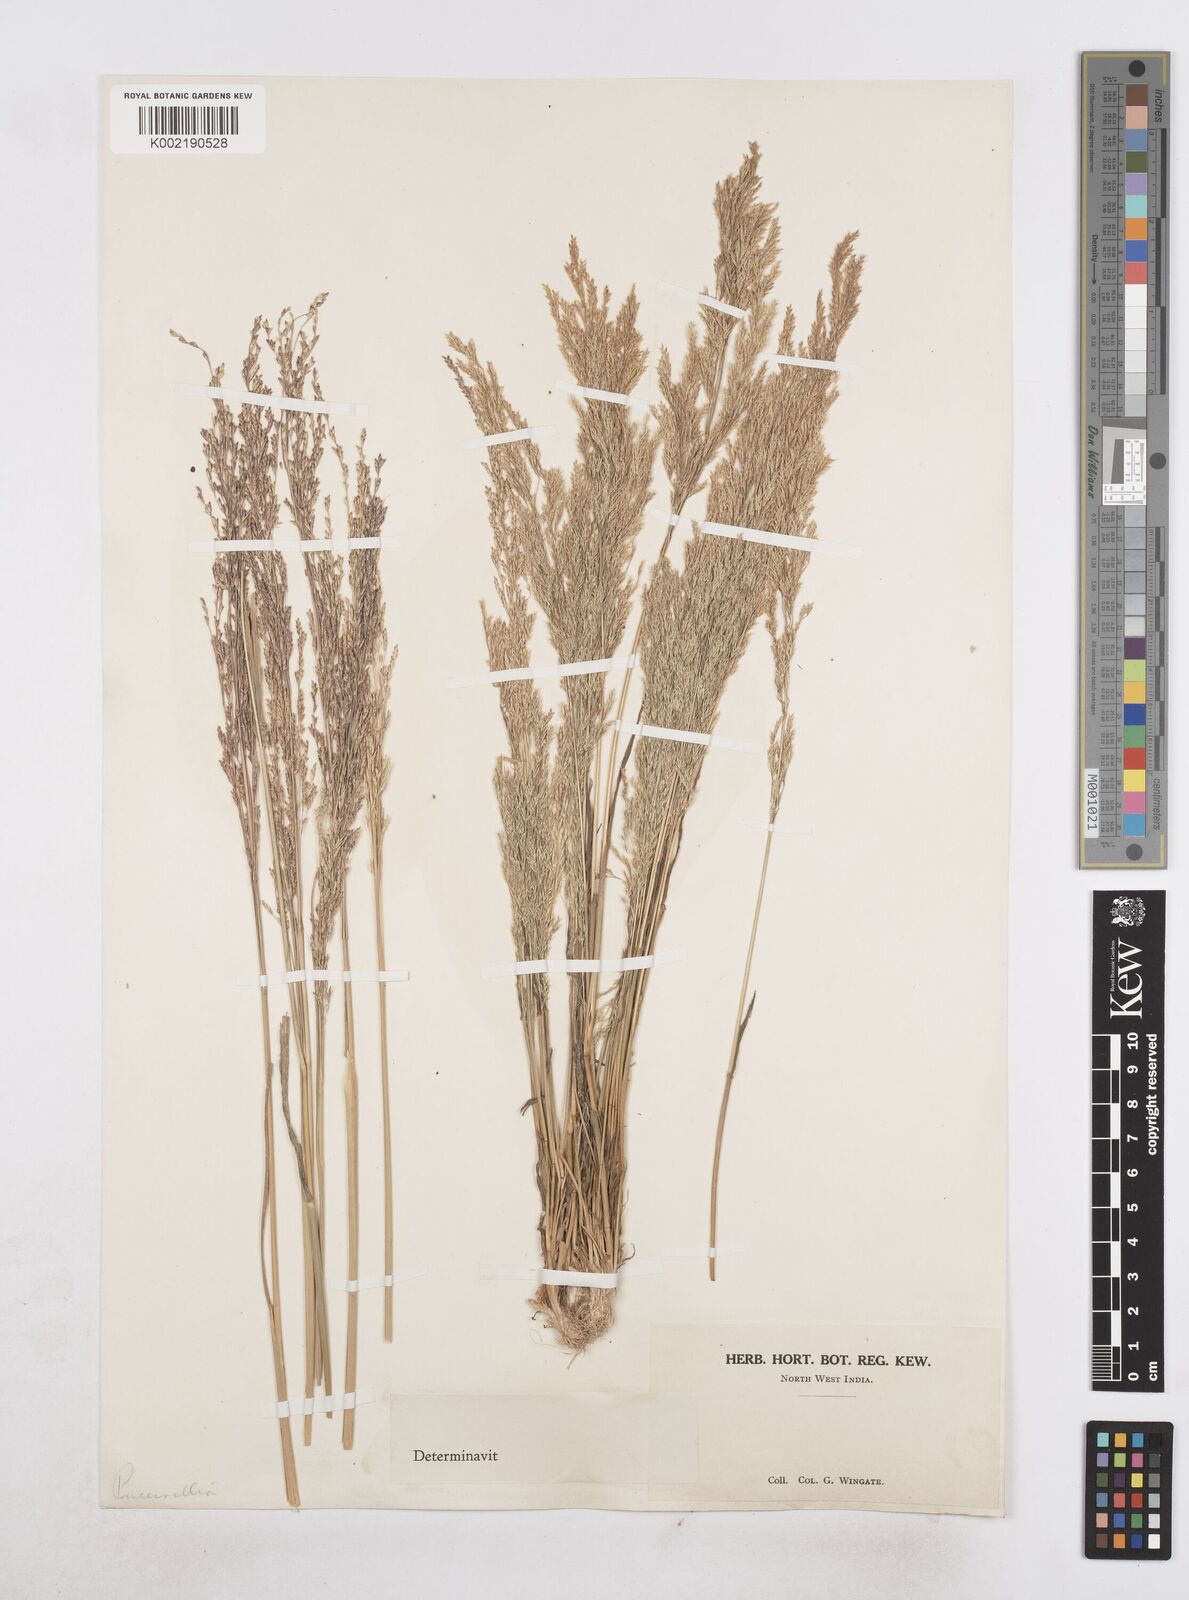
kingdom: Plantae
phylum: Tracheophyta
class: Liliopsida
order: Poales
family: Poaceae
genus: Poa
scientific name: Poa persica
